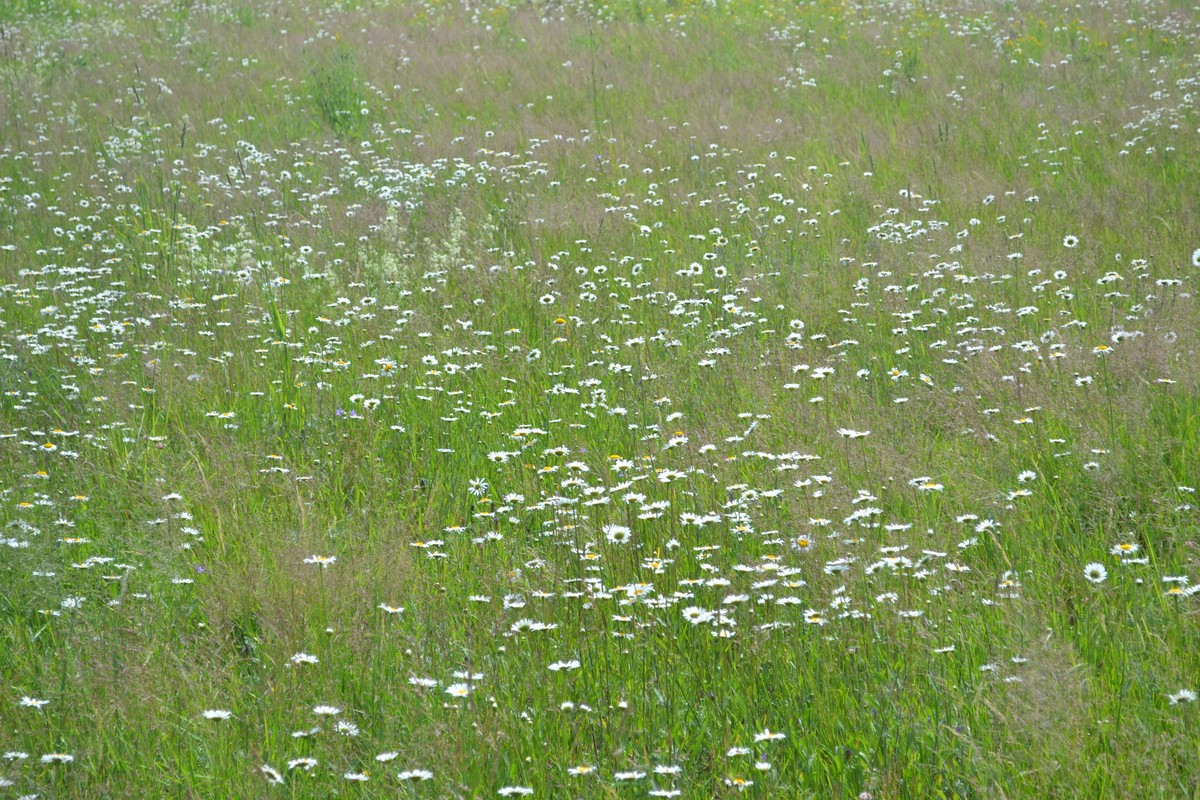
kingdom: Plantae
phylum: Tracheophyta
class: Magnoliopsida
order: Asterales
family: Asteraceae
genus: Leucanthemum
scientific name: Leucanthemum vulgare
